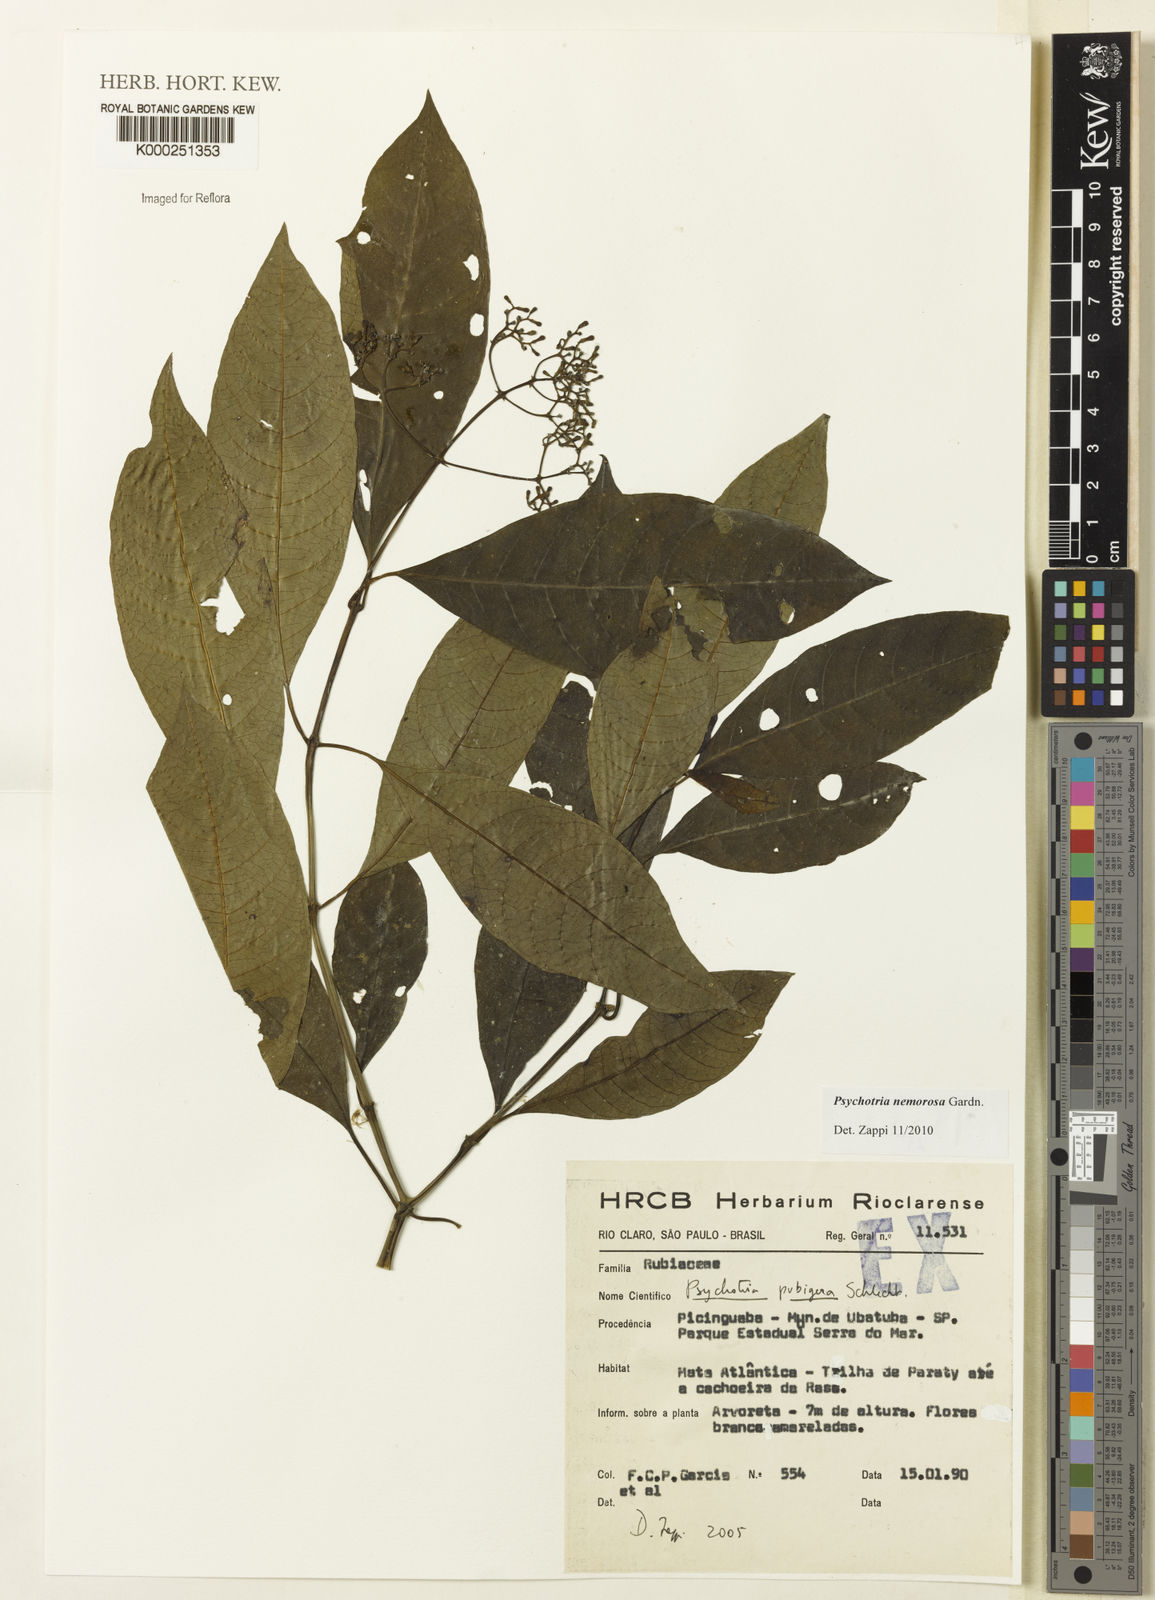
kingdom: Plantae
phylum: Tracheophyta
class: Magnoliopsida
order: Gentianales
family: Rubiaceae
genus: Psychotria
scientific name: Psychotria nemorosa
